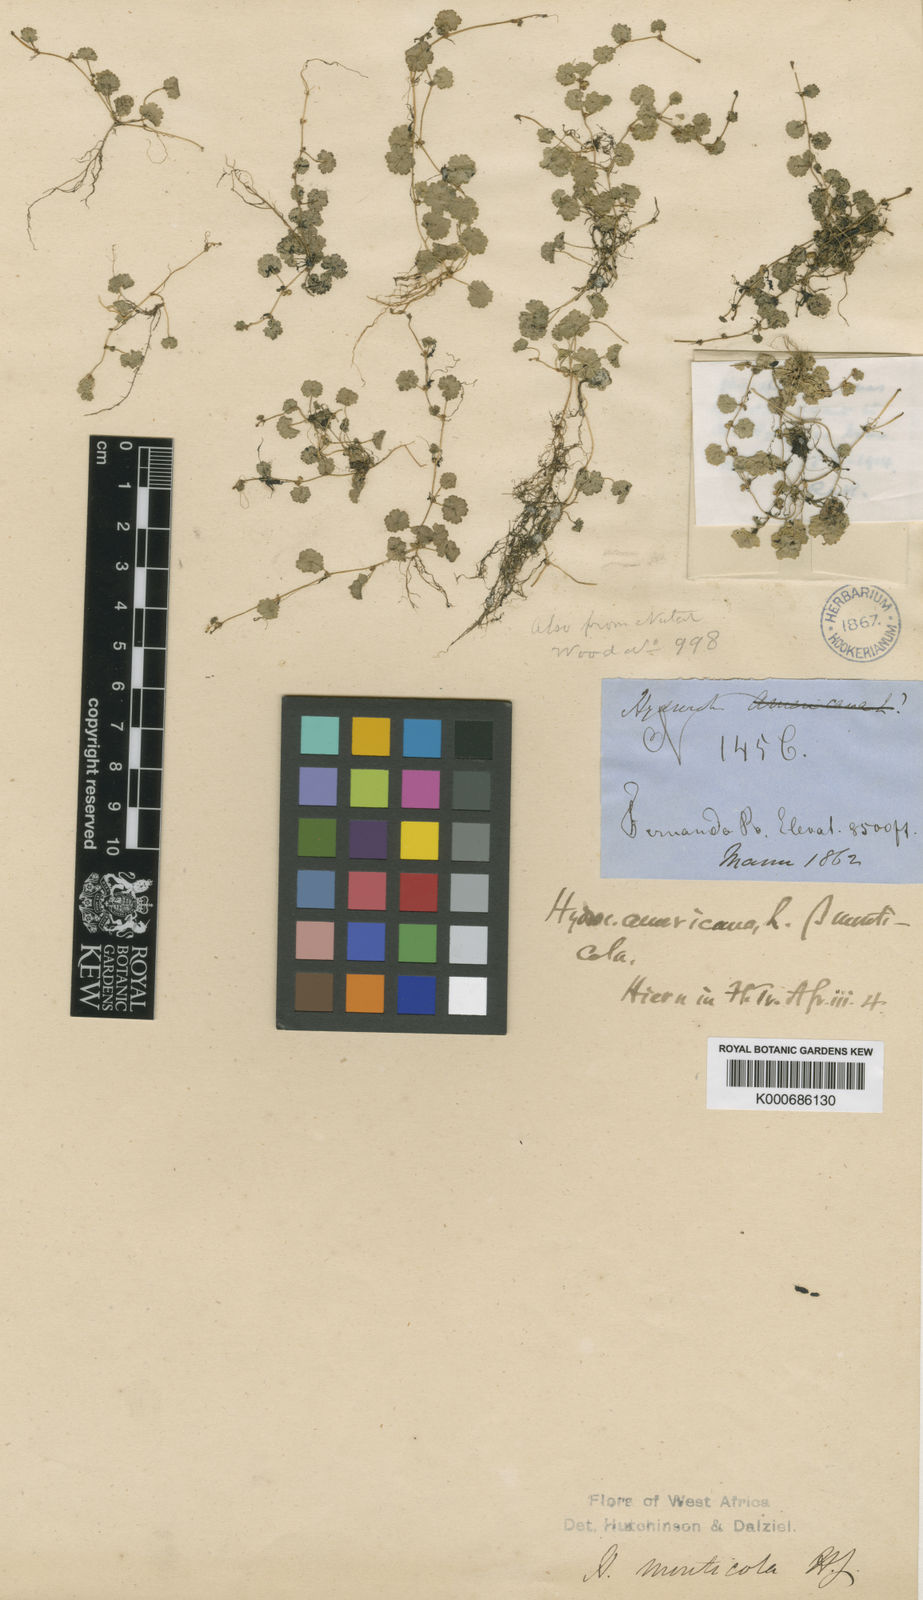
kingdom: Plantae
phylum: Tracheophyta
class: Magnoliopsida
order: Apiales
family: Araliaceae
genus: Hydrocotyle
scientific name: Hydrocotyle moschata
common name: Hairy pennywort
